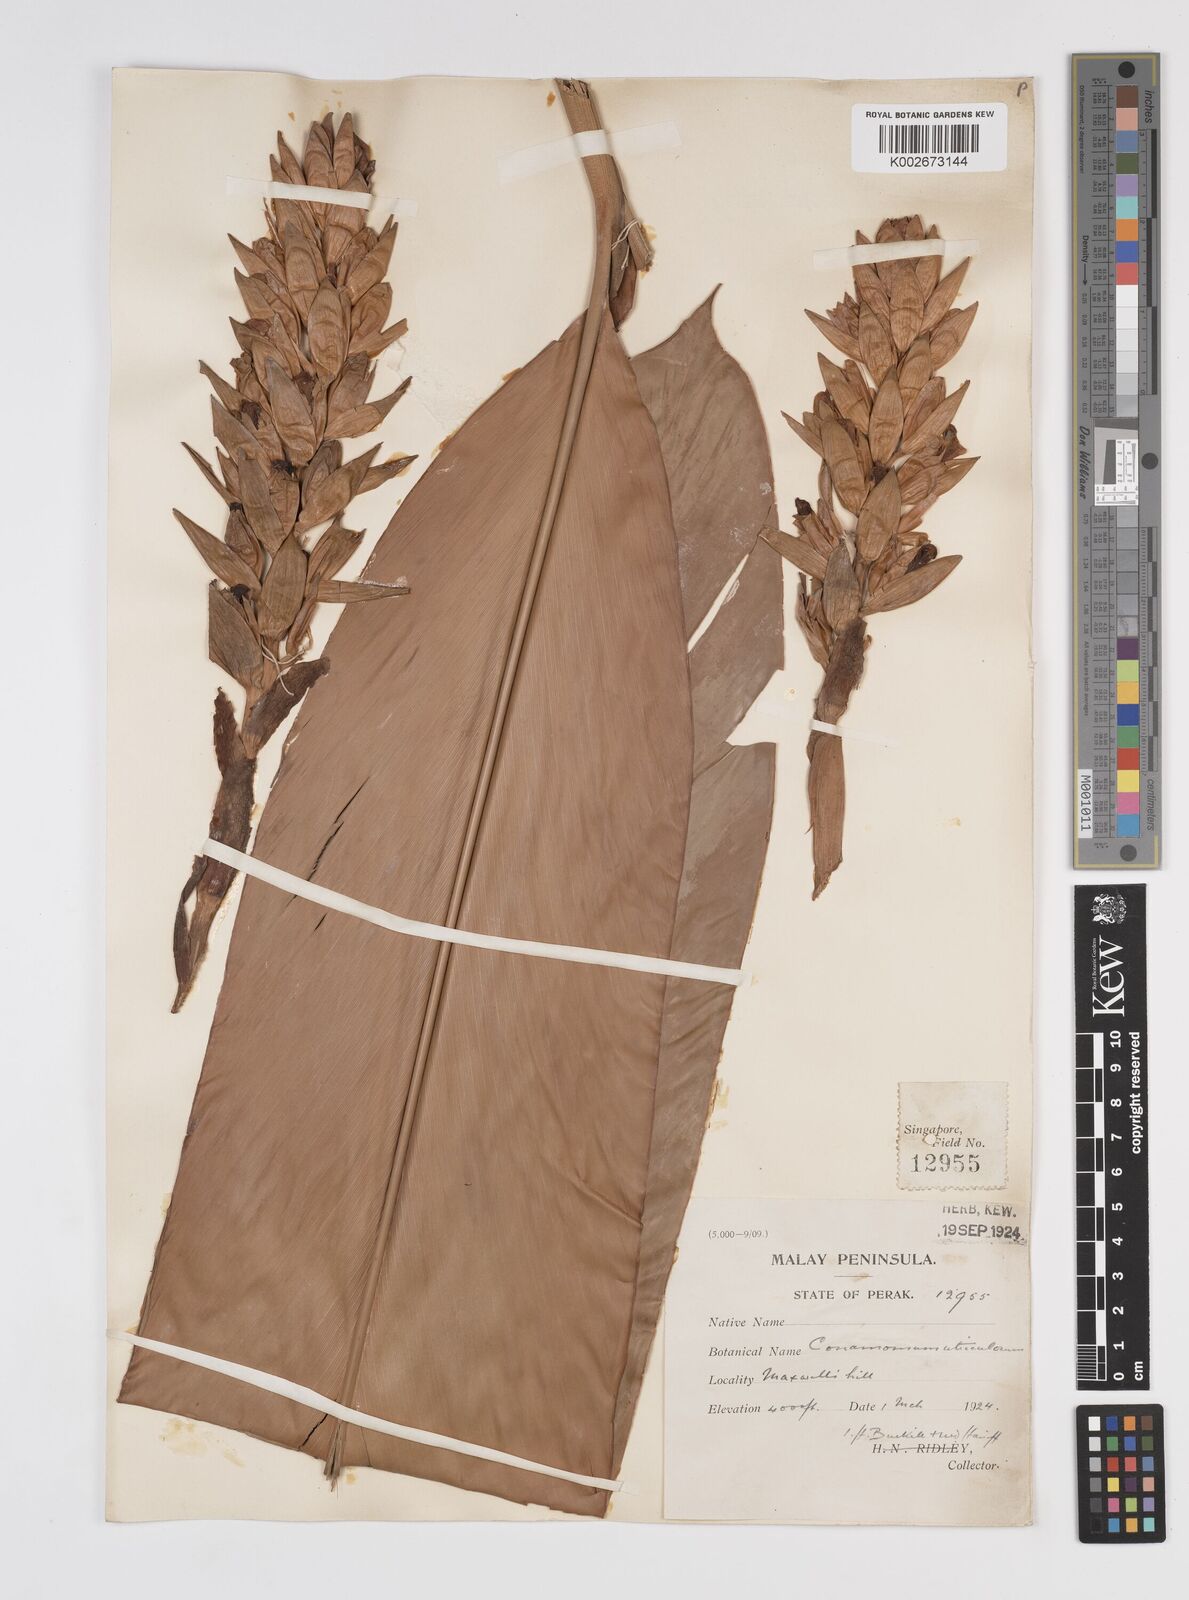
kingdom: Plantae
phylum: Tracheophyta
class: Liliopsida
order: Zingiberales
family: Zingiberaceae
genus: Conamomum
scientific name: Conamomum citrinum
